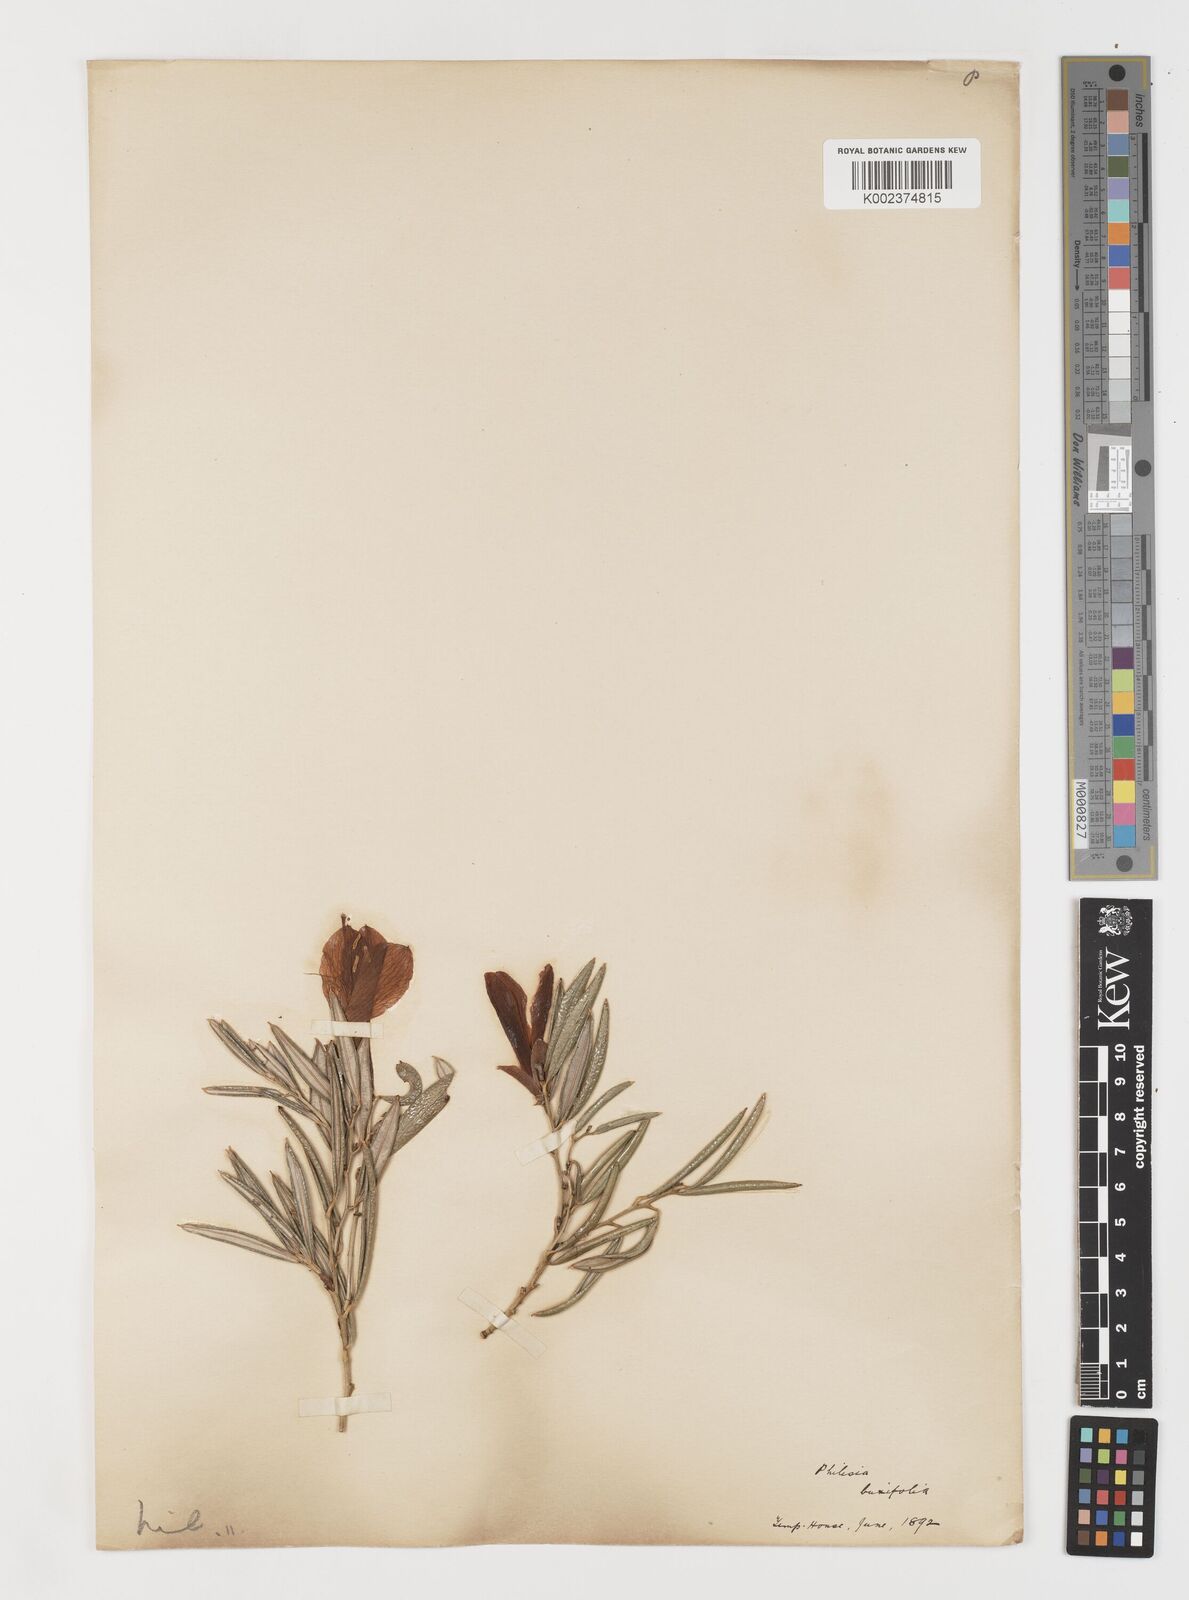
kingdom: Plantae
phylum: Tracheophyta
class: Liliopsida
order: Liliales
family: Philesiaceae
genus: Philesia
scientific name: Philesia magellanica
